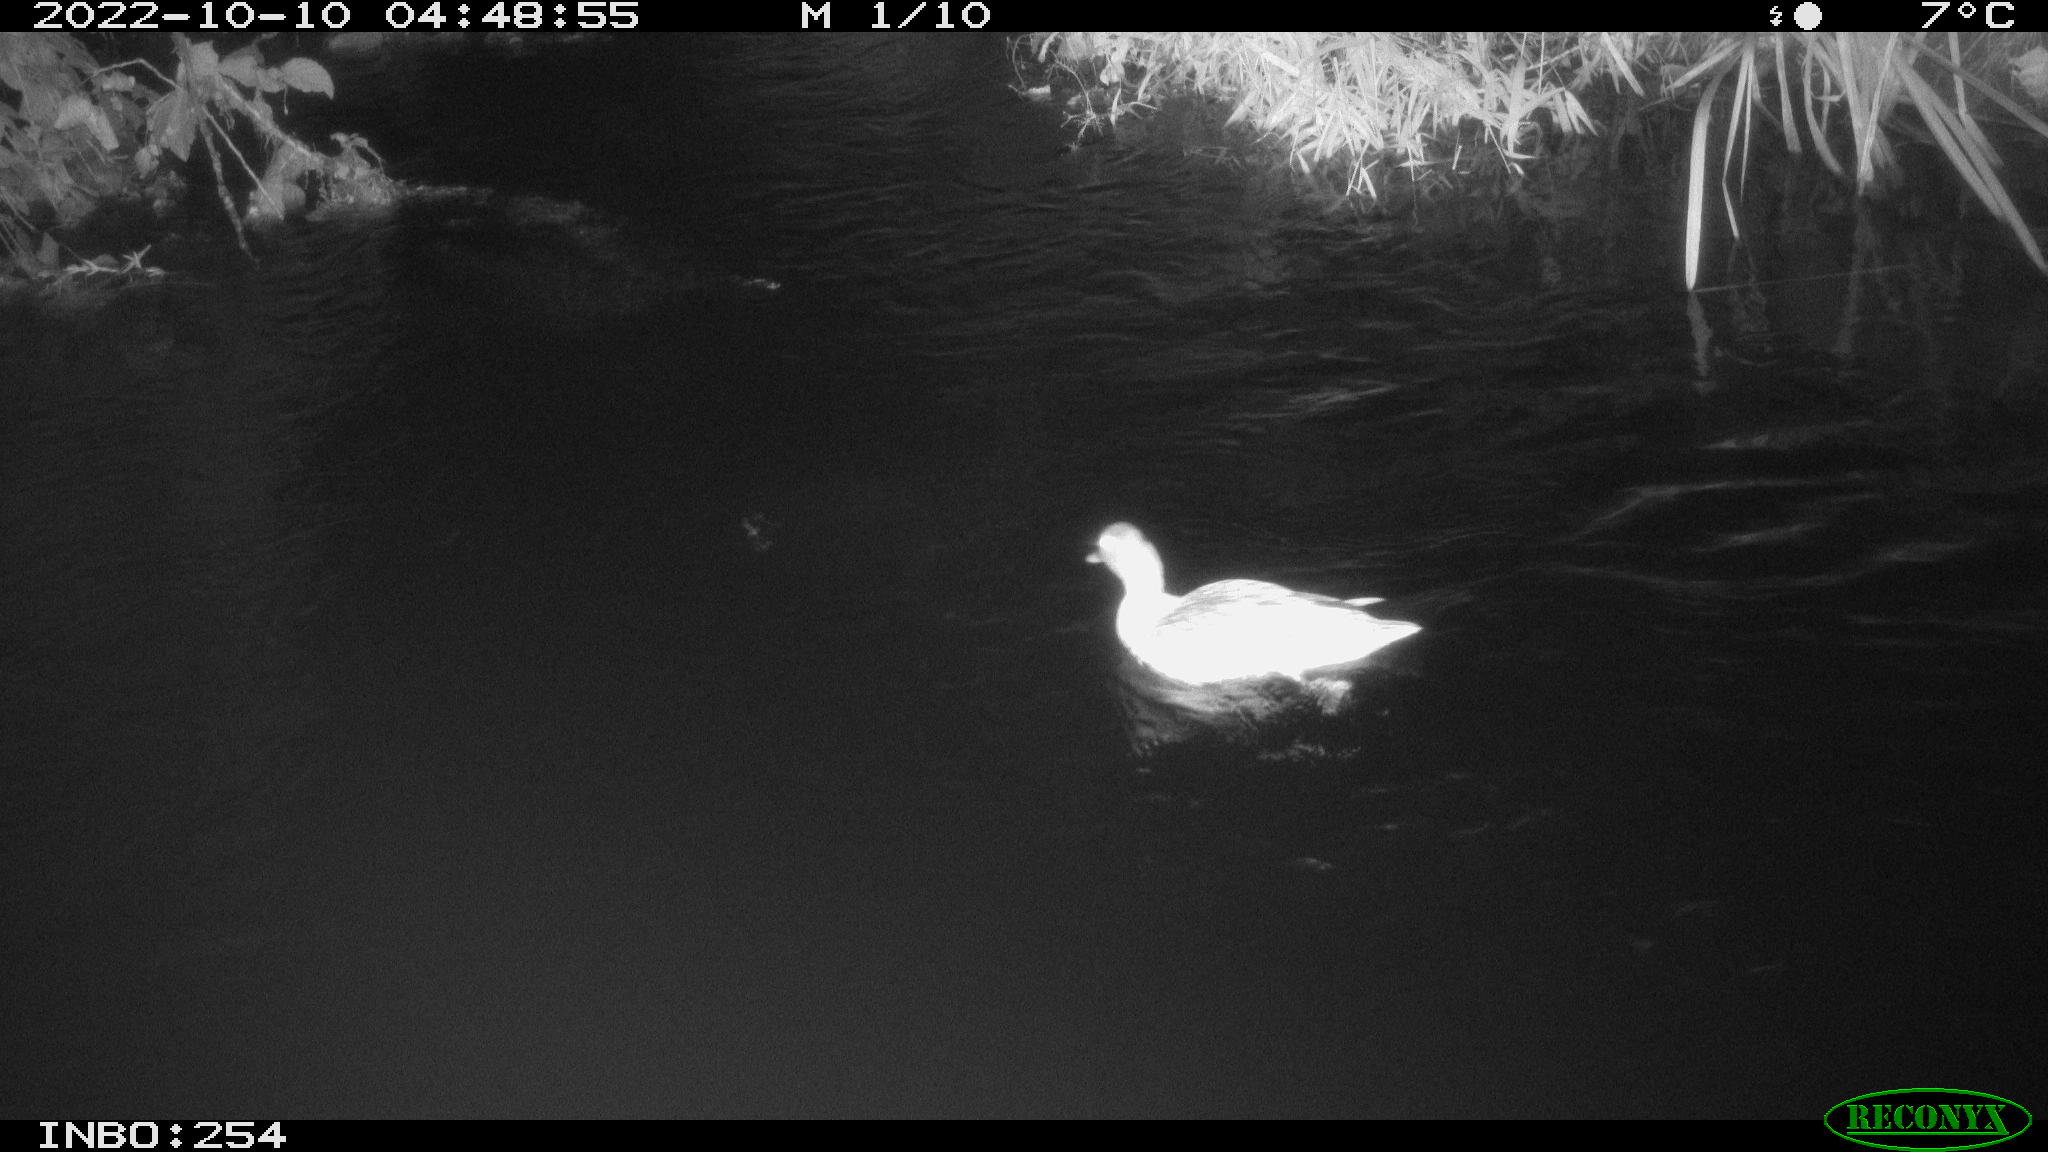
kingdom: Animalia
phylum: Chordata
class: Aves
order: Anseriformes
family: Anatidae
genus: Anas
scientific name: Anas
